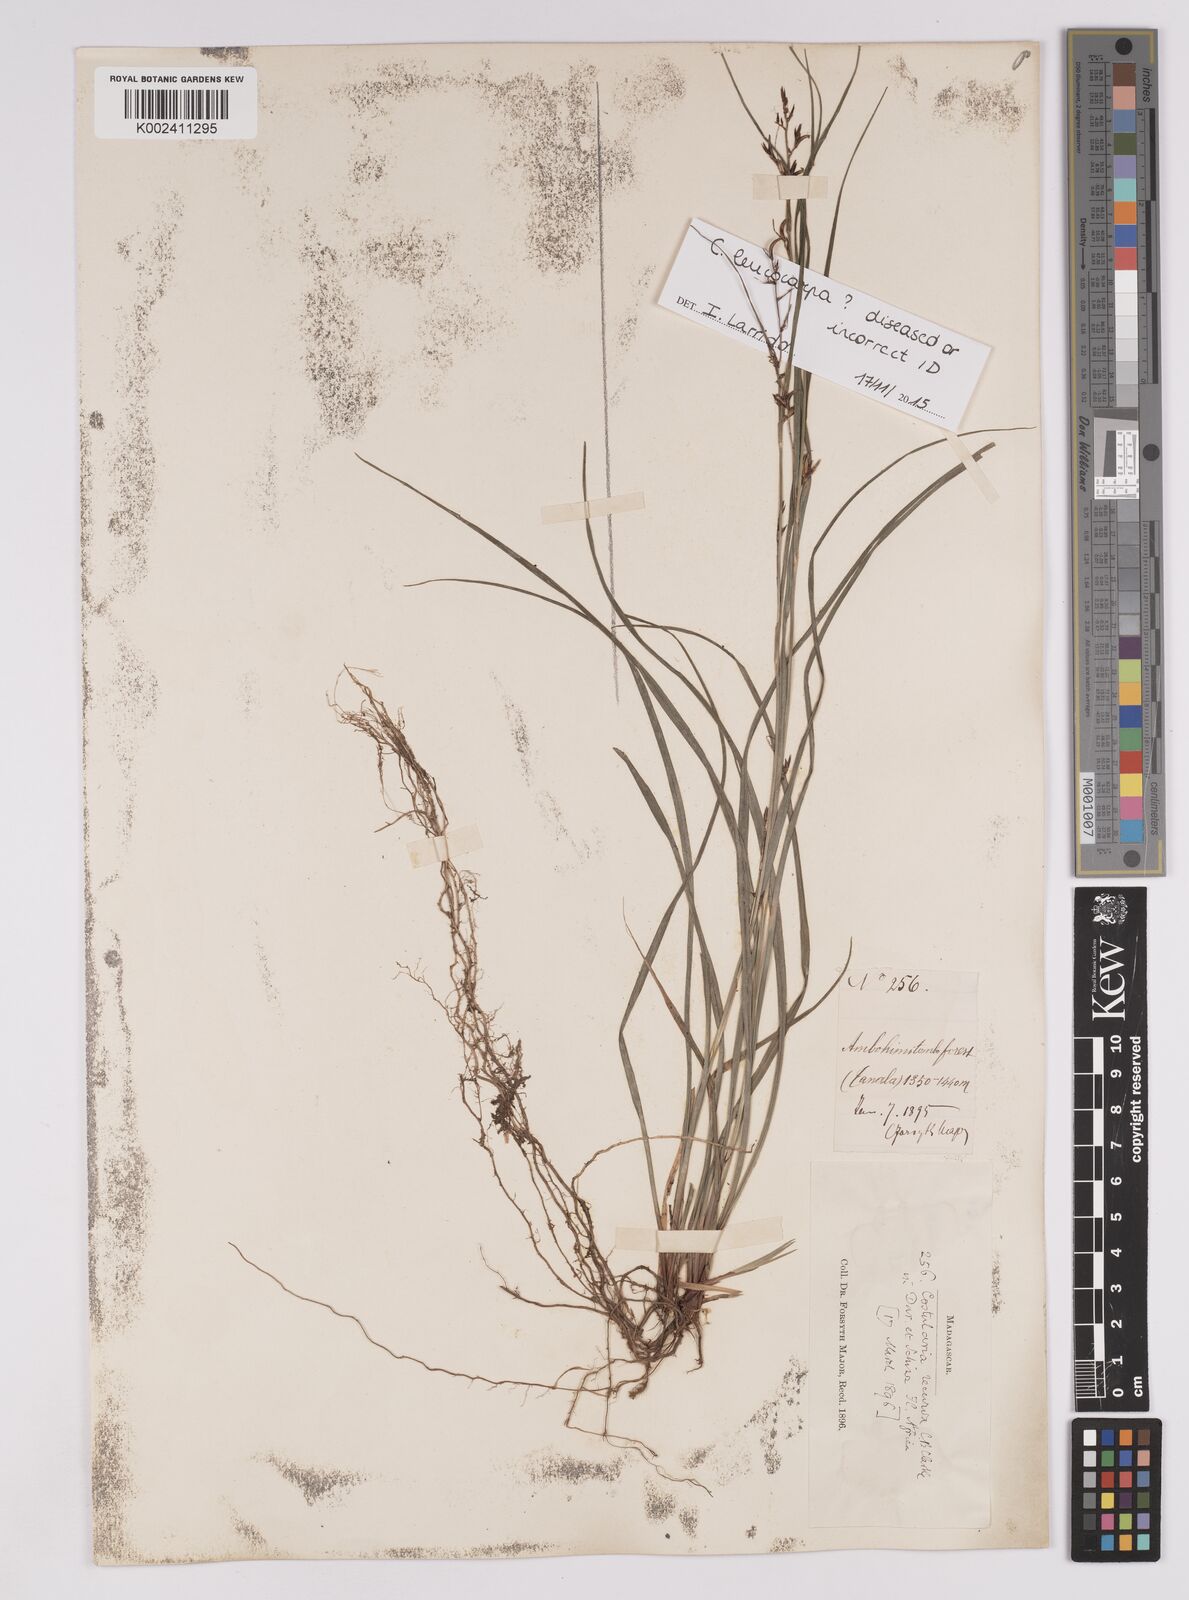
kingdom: Plantae
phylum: Tracheophyta
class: Liliopsida
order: Poales
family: Cyperaceae
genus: Costularia
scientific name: Costularia leucocarpa
